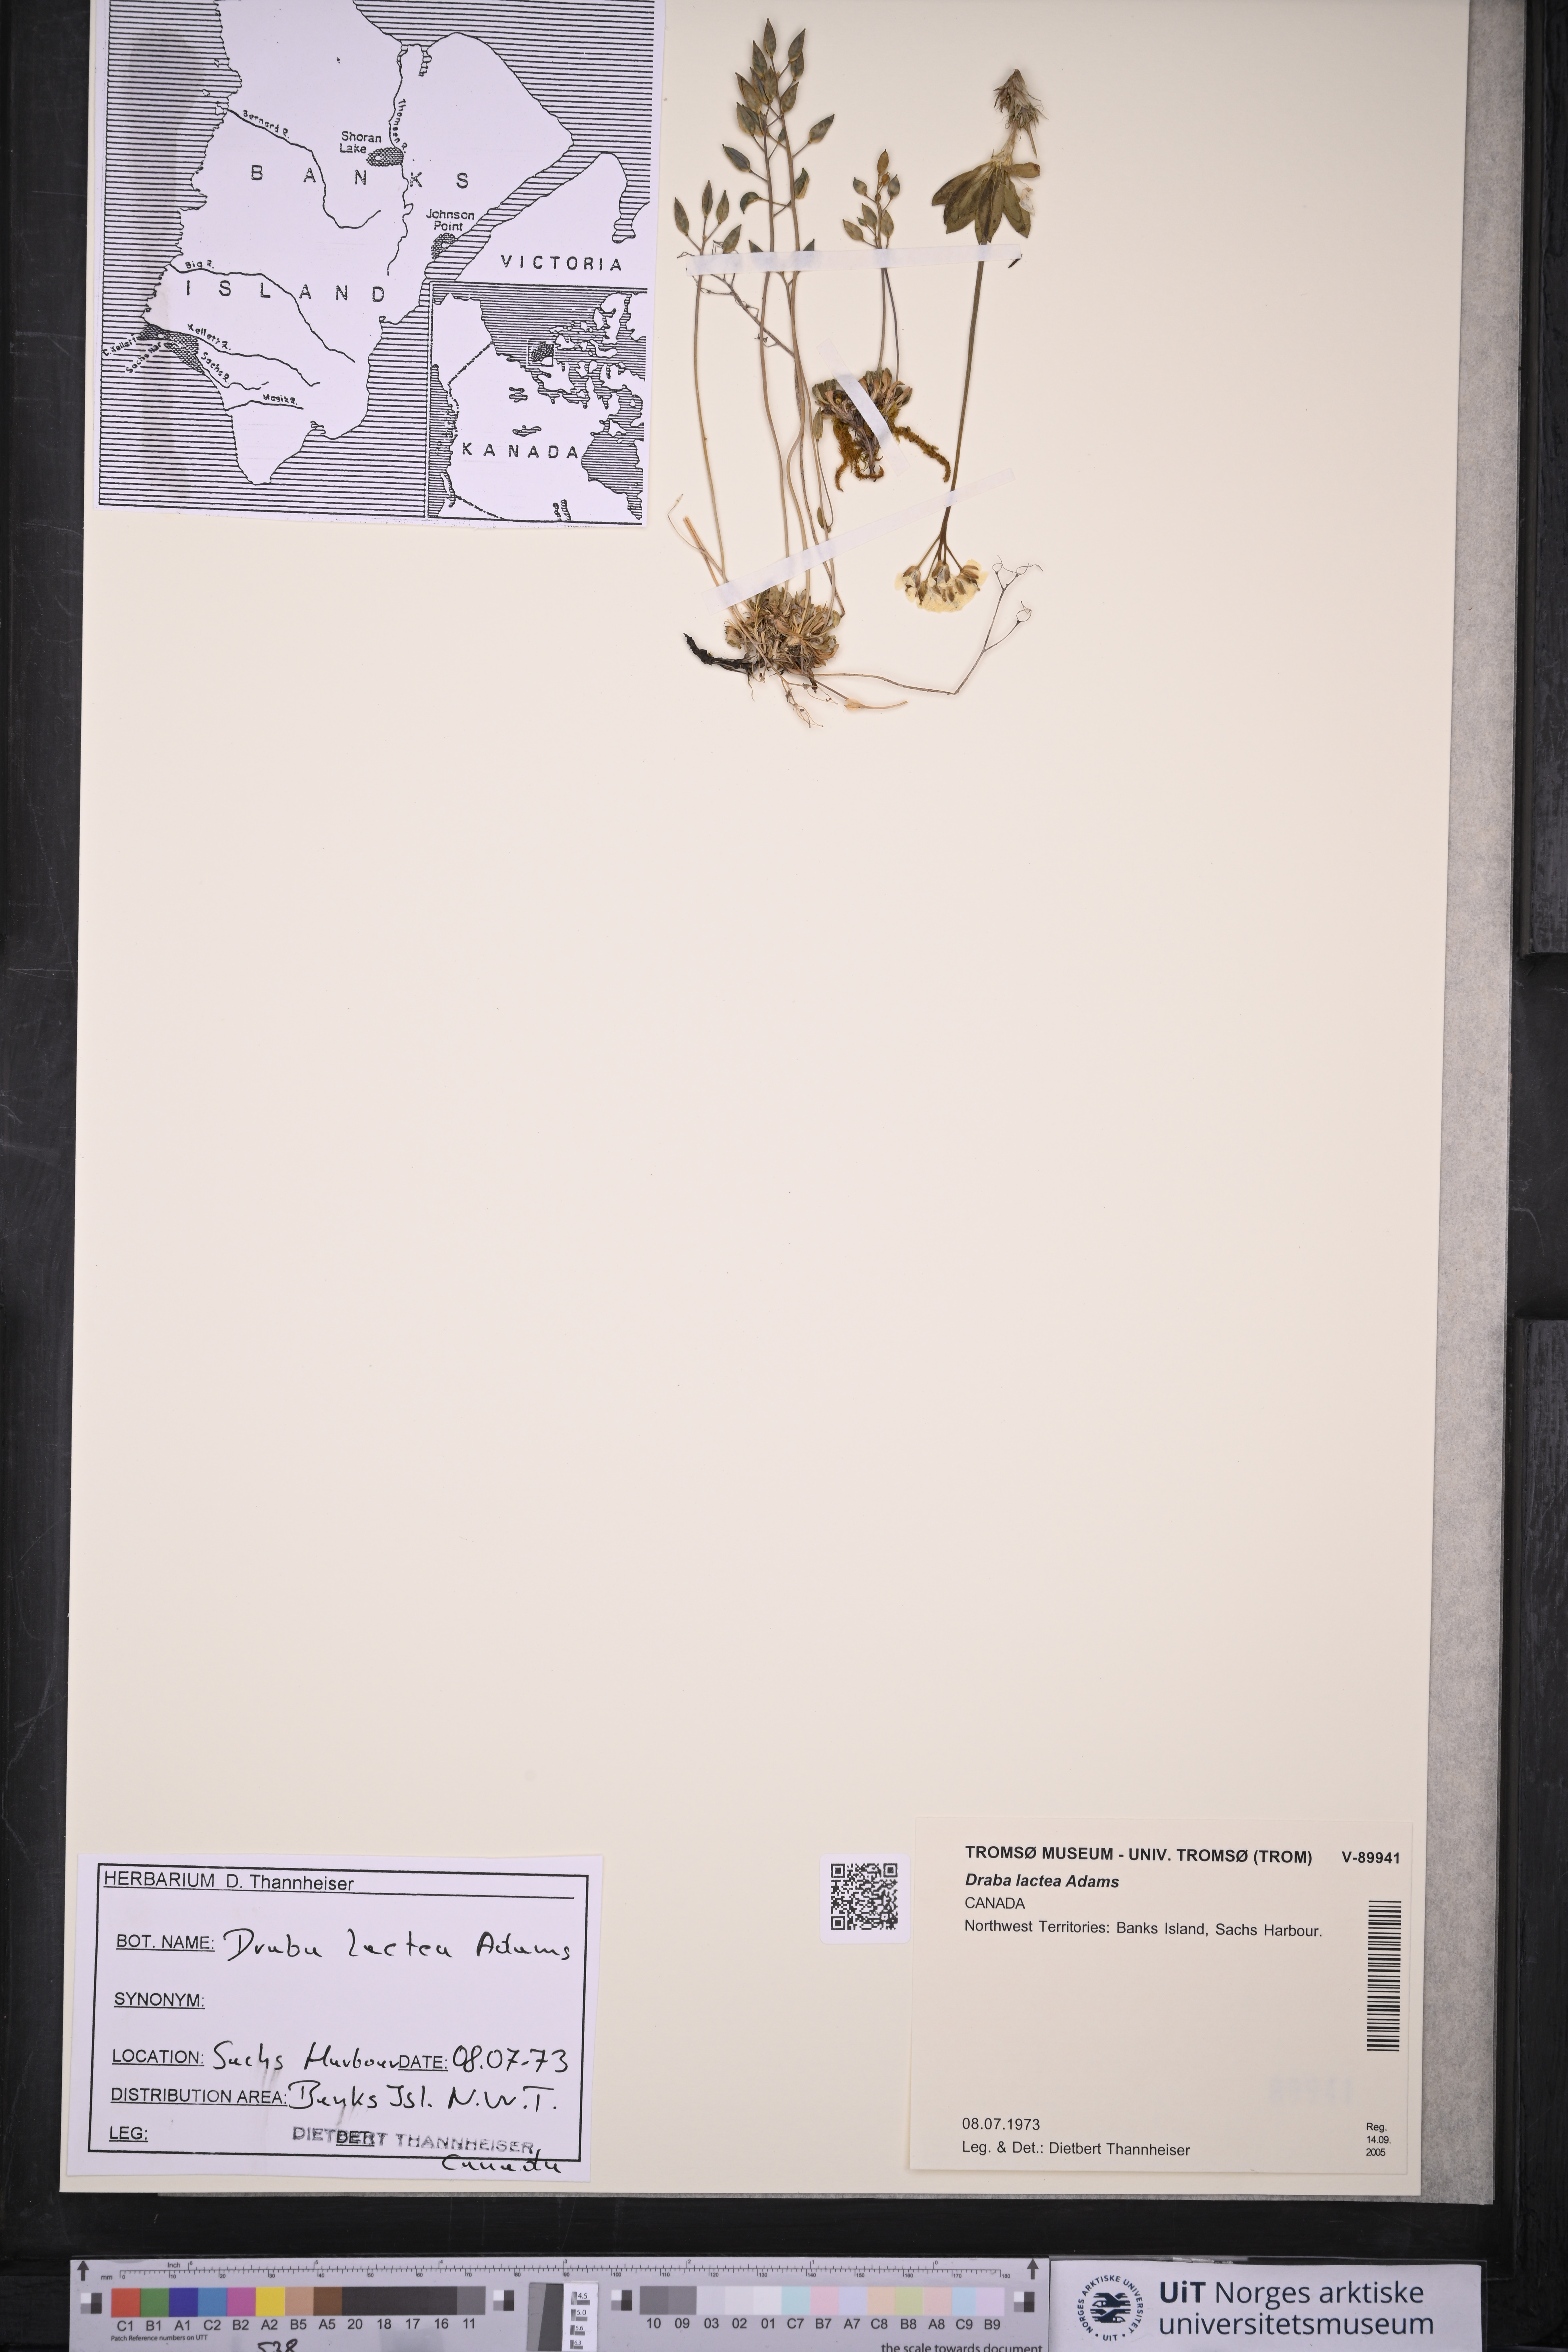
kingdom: Plantae
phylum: Tracheophyta
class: Magnoliopsida
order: Brassicales
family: Brassicaceae
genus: Draba
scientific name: Draba lactea
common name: Milky draba
